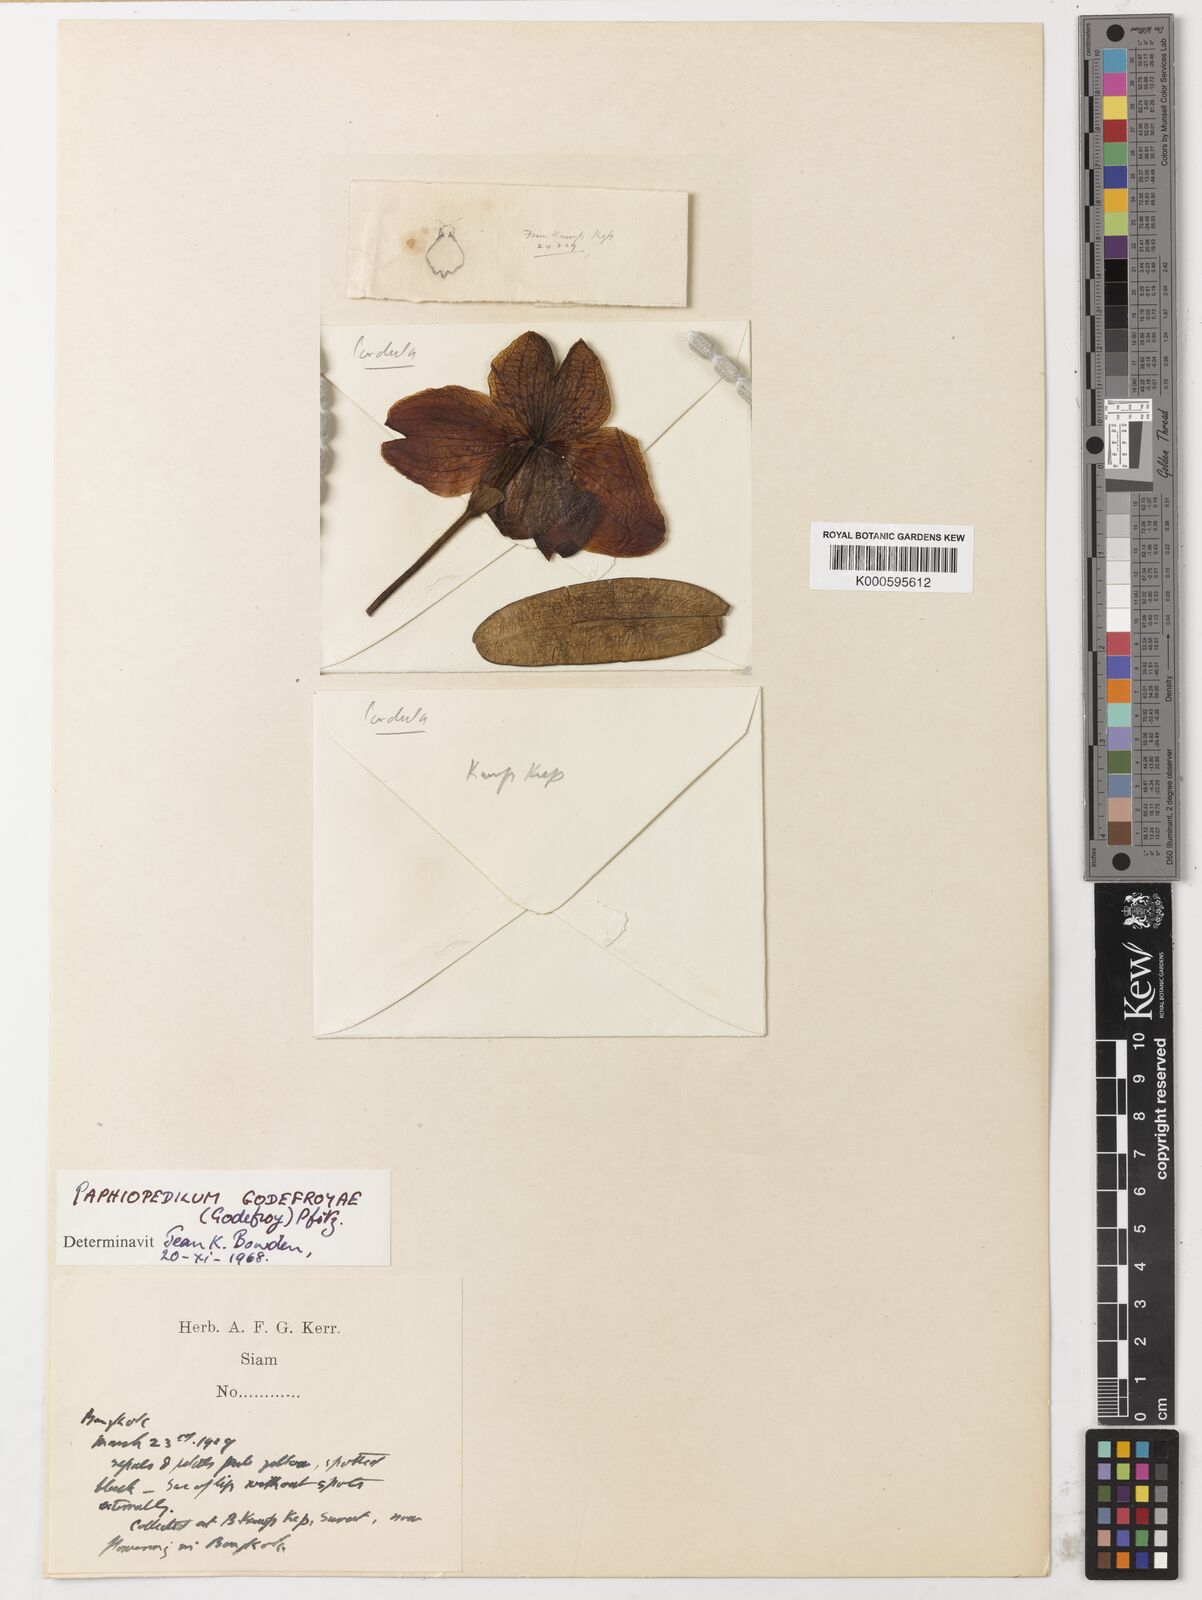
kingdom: Plantae
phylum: Tracheophyta
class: Liliopsida
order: Asparagales
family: Orchidaceae
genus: Paphiopedilum
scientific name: Paphiopedilum
